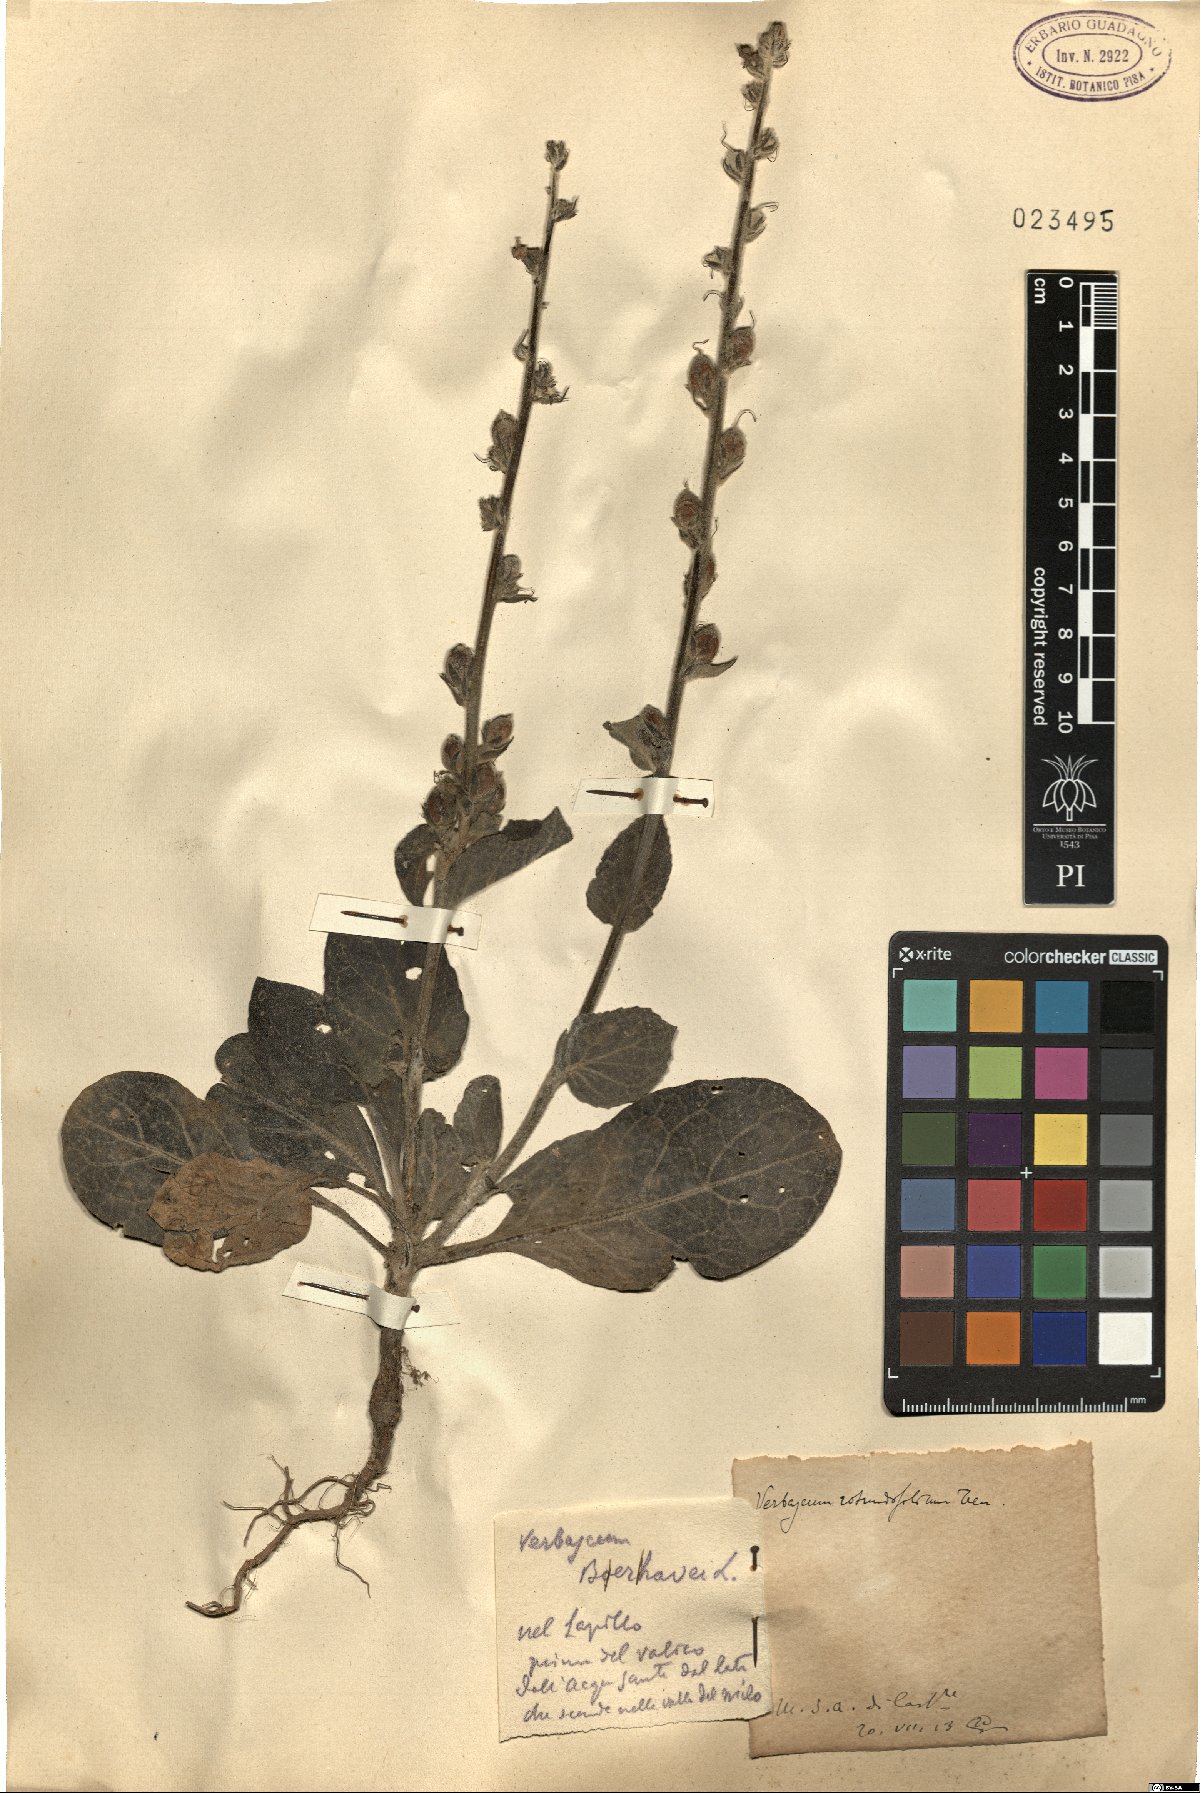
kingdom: Plantae
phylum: Tracheophyta
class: Magnoliopsida
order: Lamiales
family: Scrophulariaceae
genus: Verbascum
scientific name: Verbascum boerhavii
